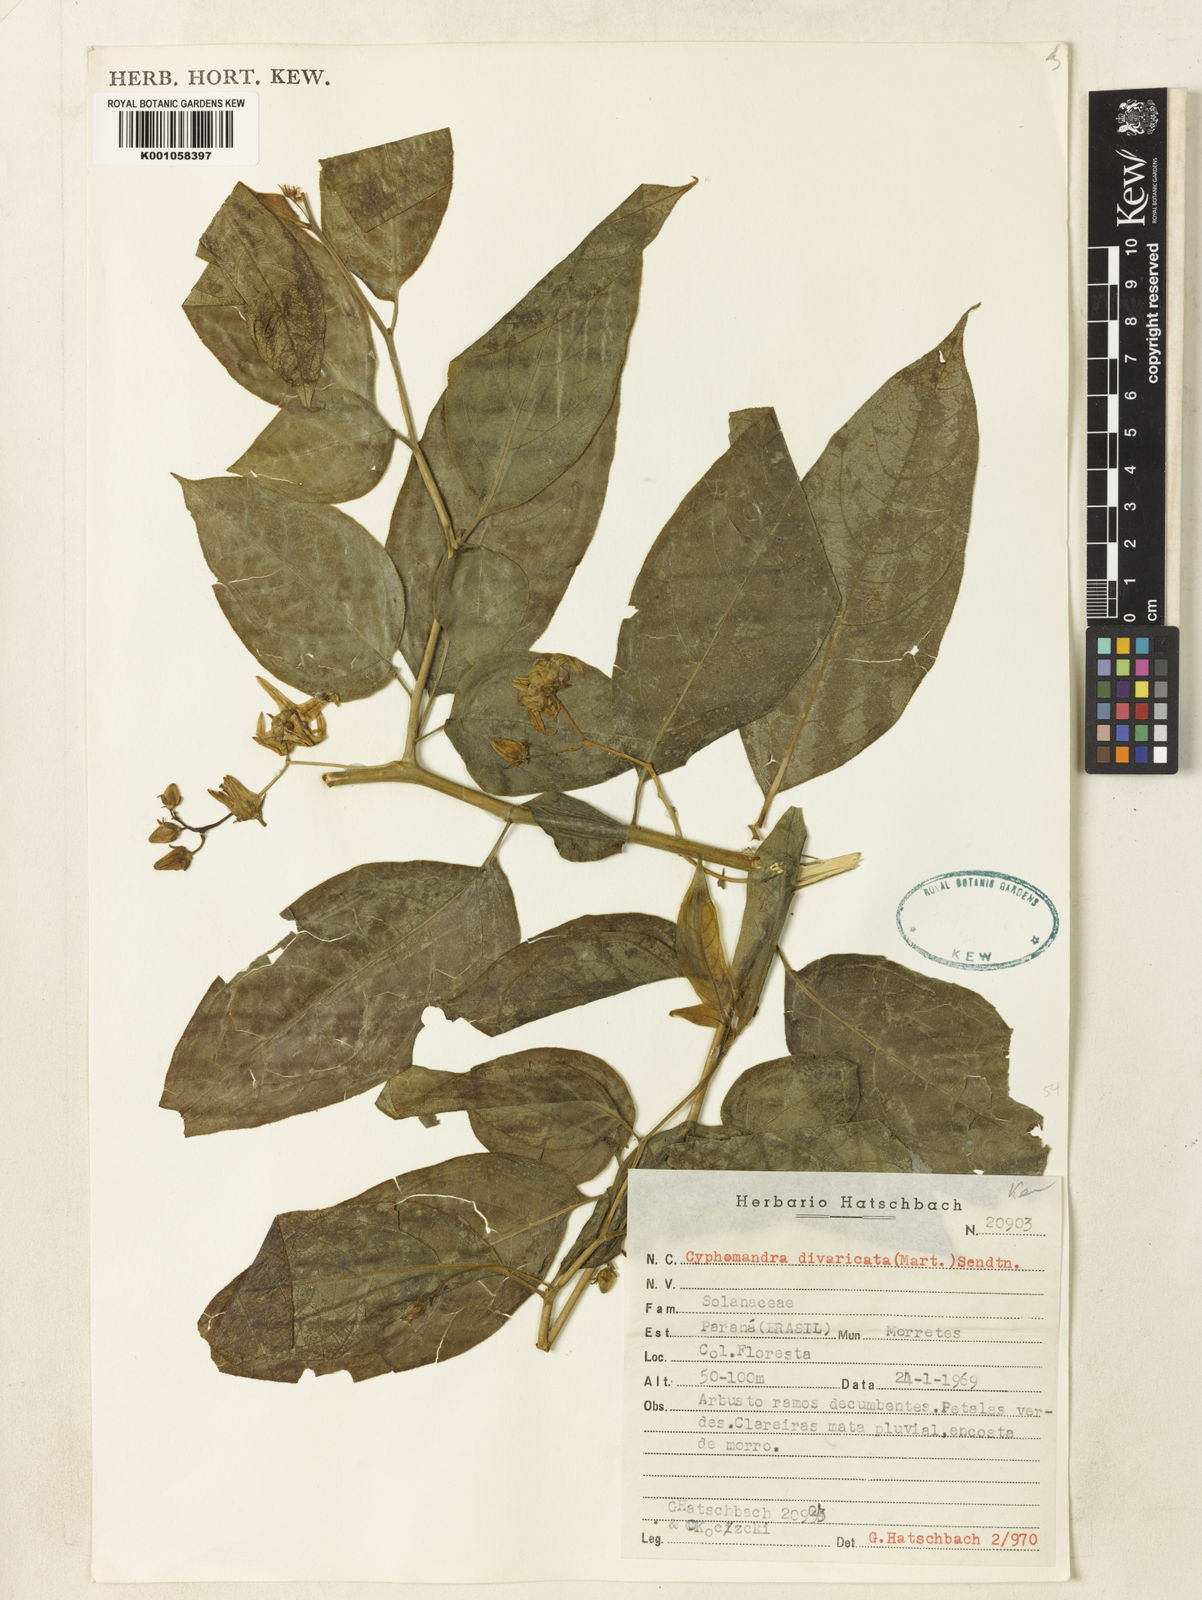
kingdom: Plantae
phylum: Tracheophyta
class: Magnoliopsida
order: Solanales
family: Solanaceae
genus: Solanum
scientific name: Solanum melissarum
